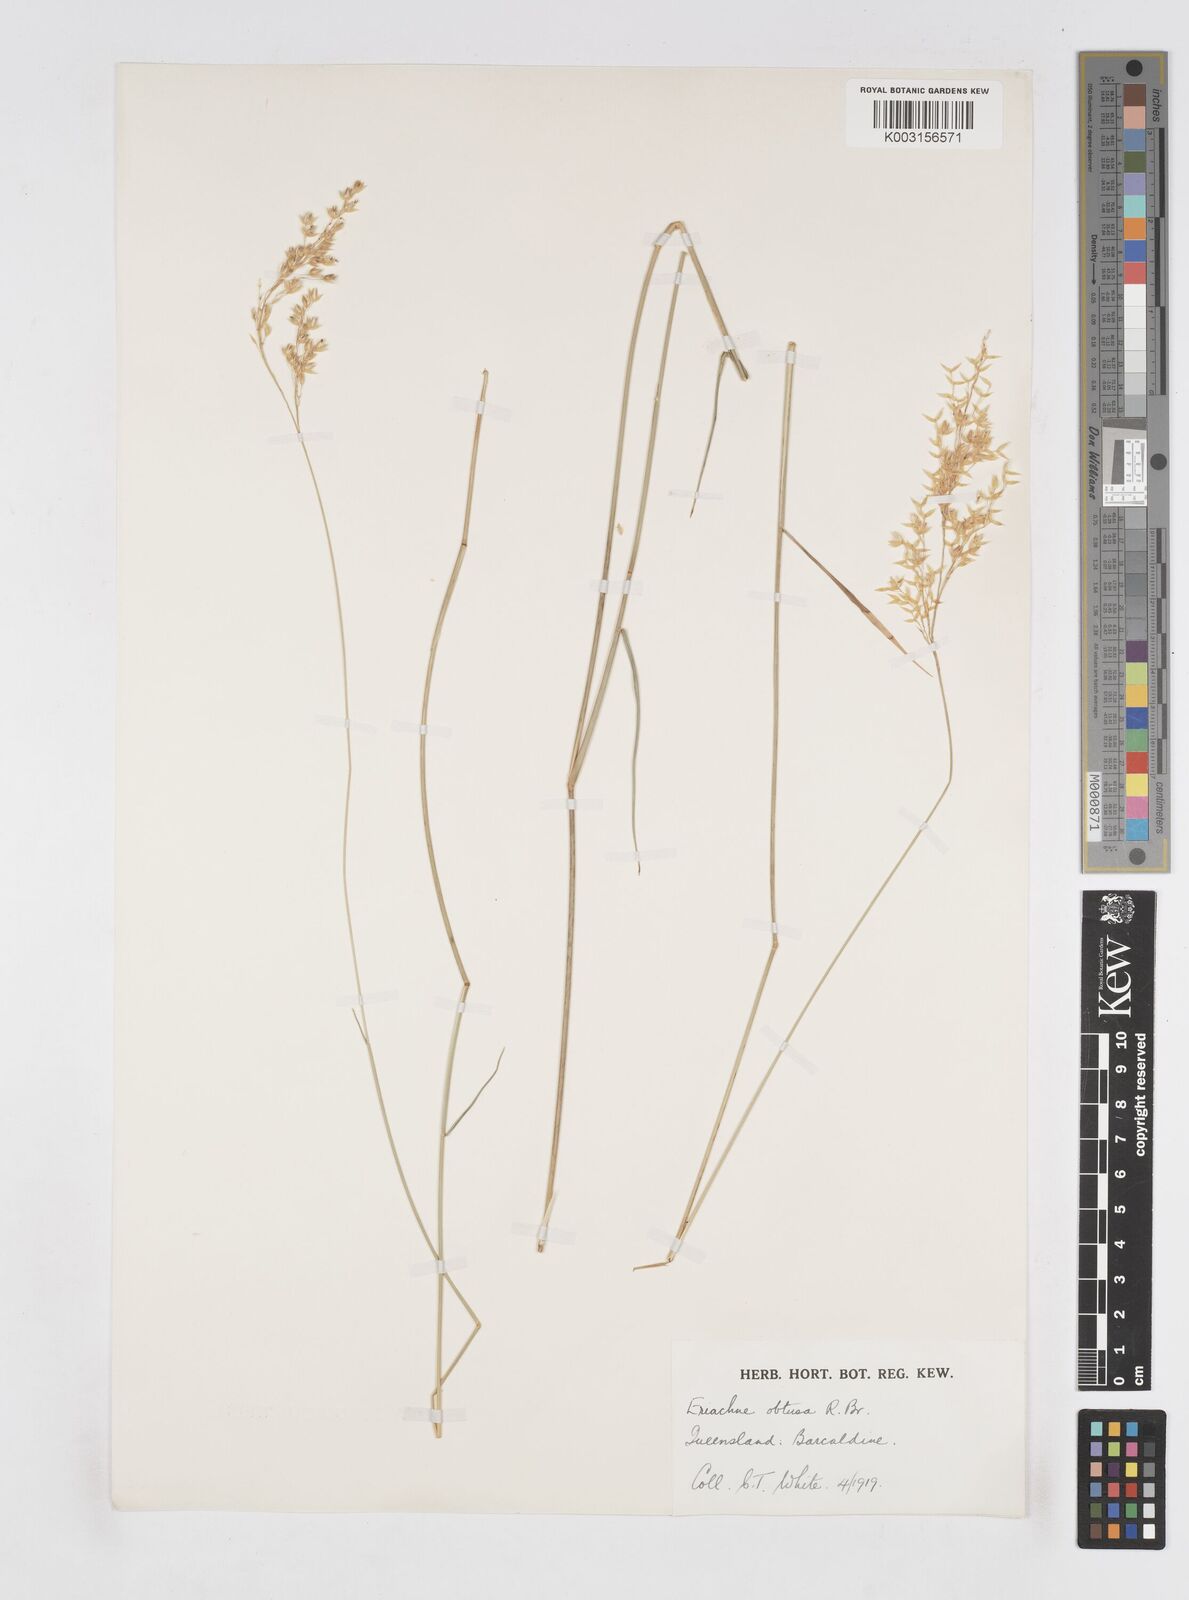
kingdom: Plantae
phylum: Tracheophyta
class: Liliopsida
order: Poales
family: Poaceae
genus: Eriachne
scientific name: Eriachne obtusa
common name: Northern wanderrie grass
